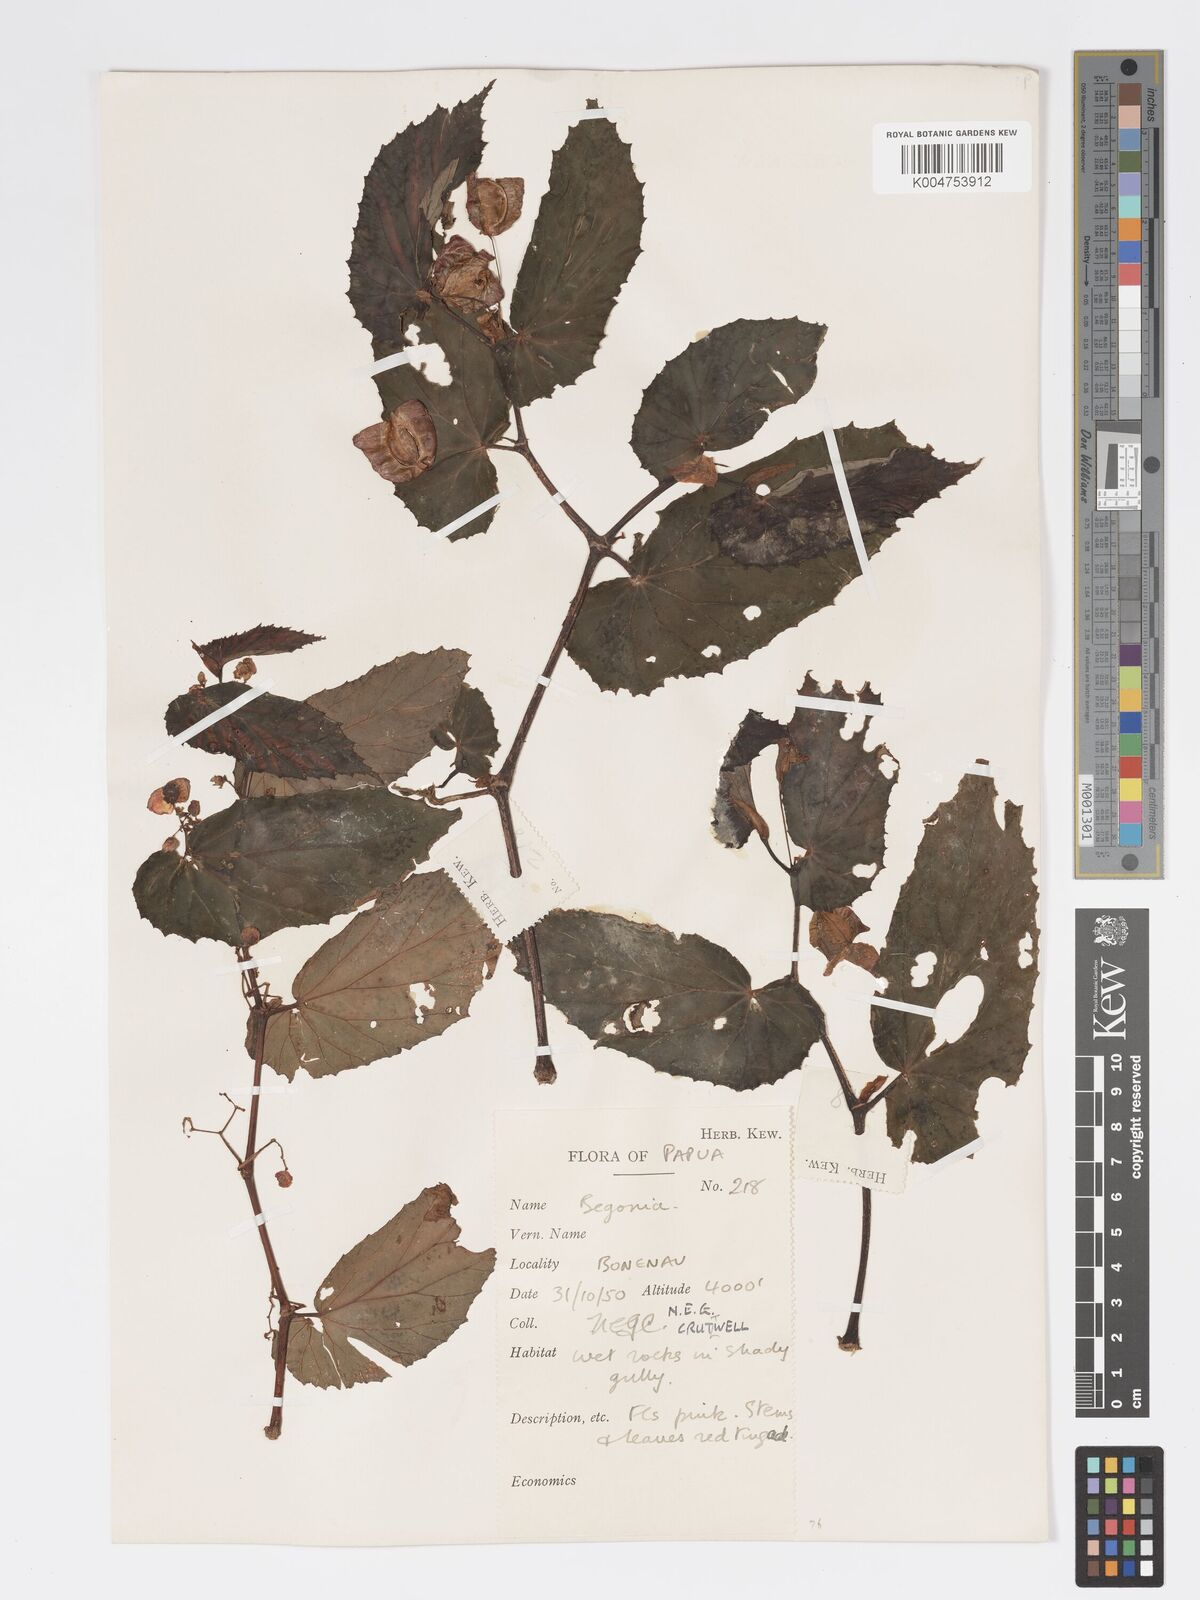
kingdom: Plantae
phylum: Tracheophyta
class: Magnoliopsida
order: Cucurbitales
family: Begoniaceae
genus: Begonia
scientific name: Begonia fruticella
